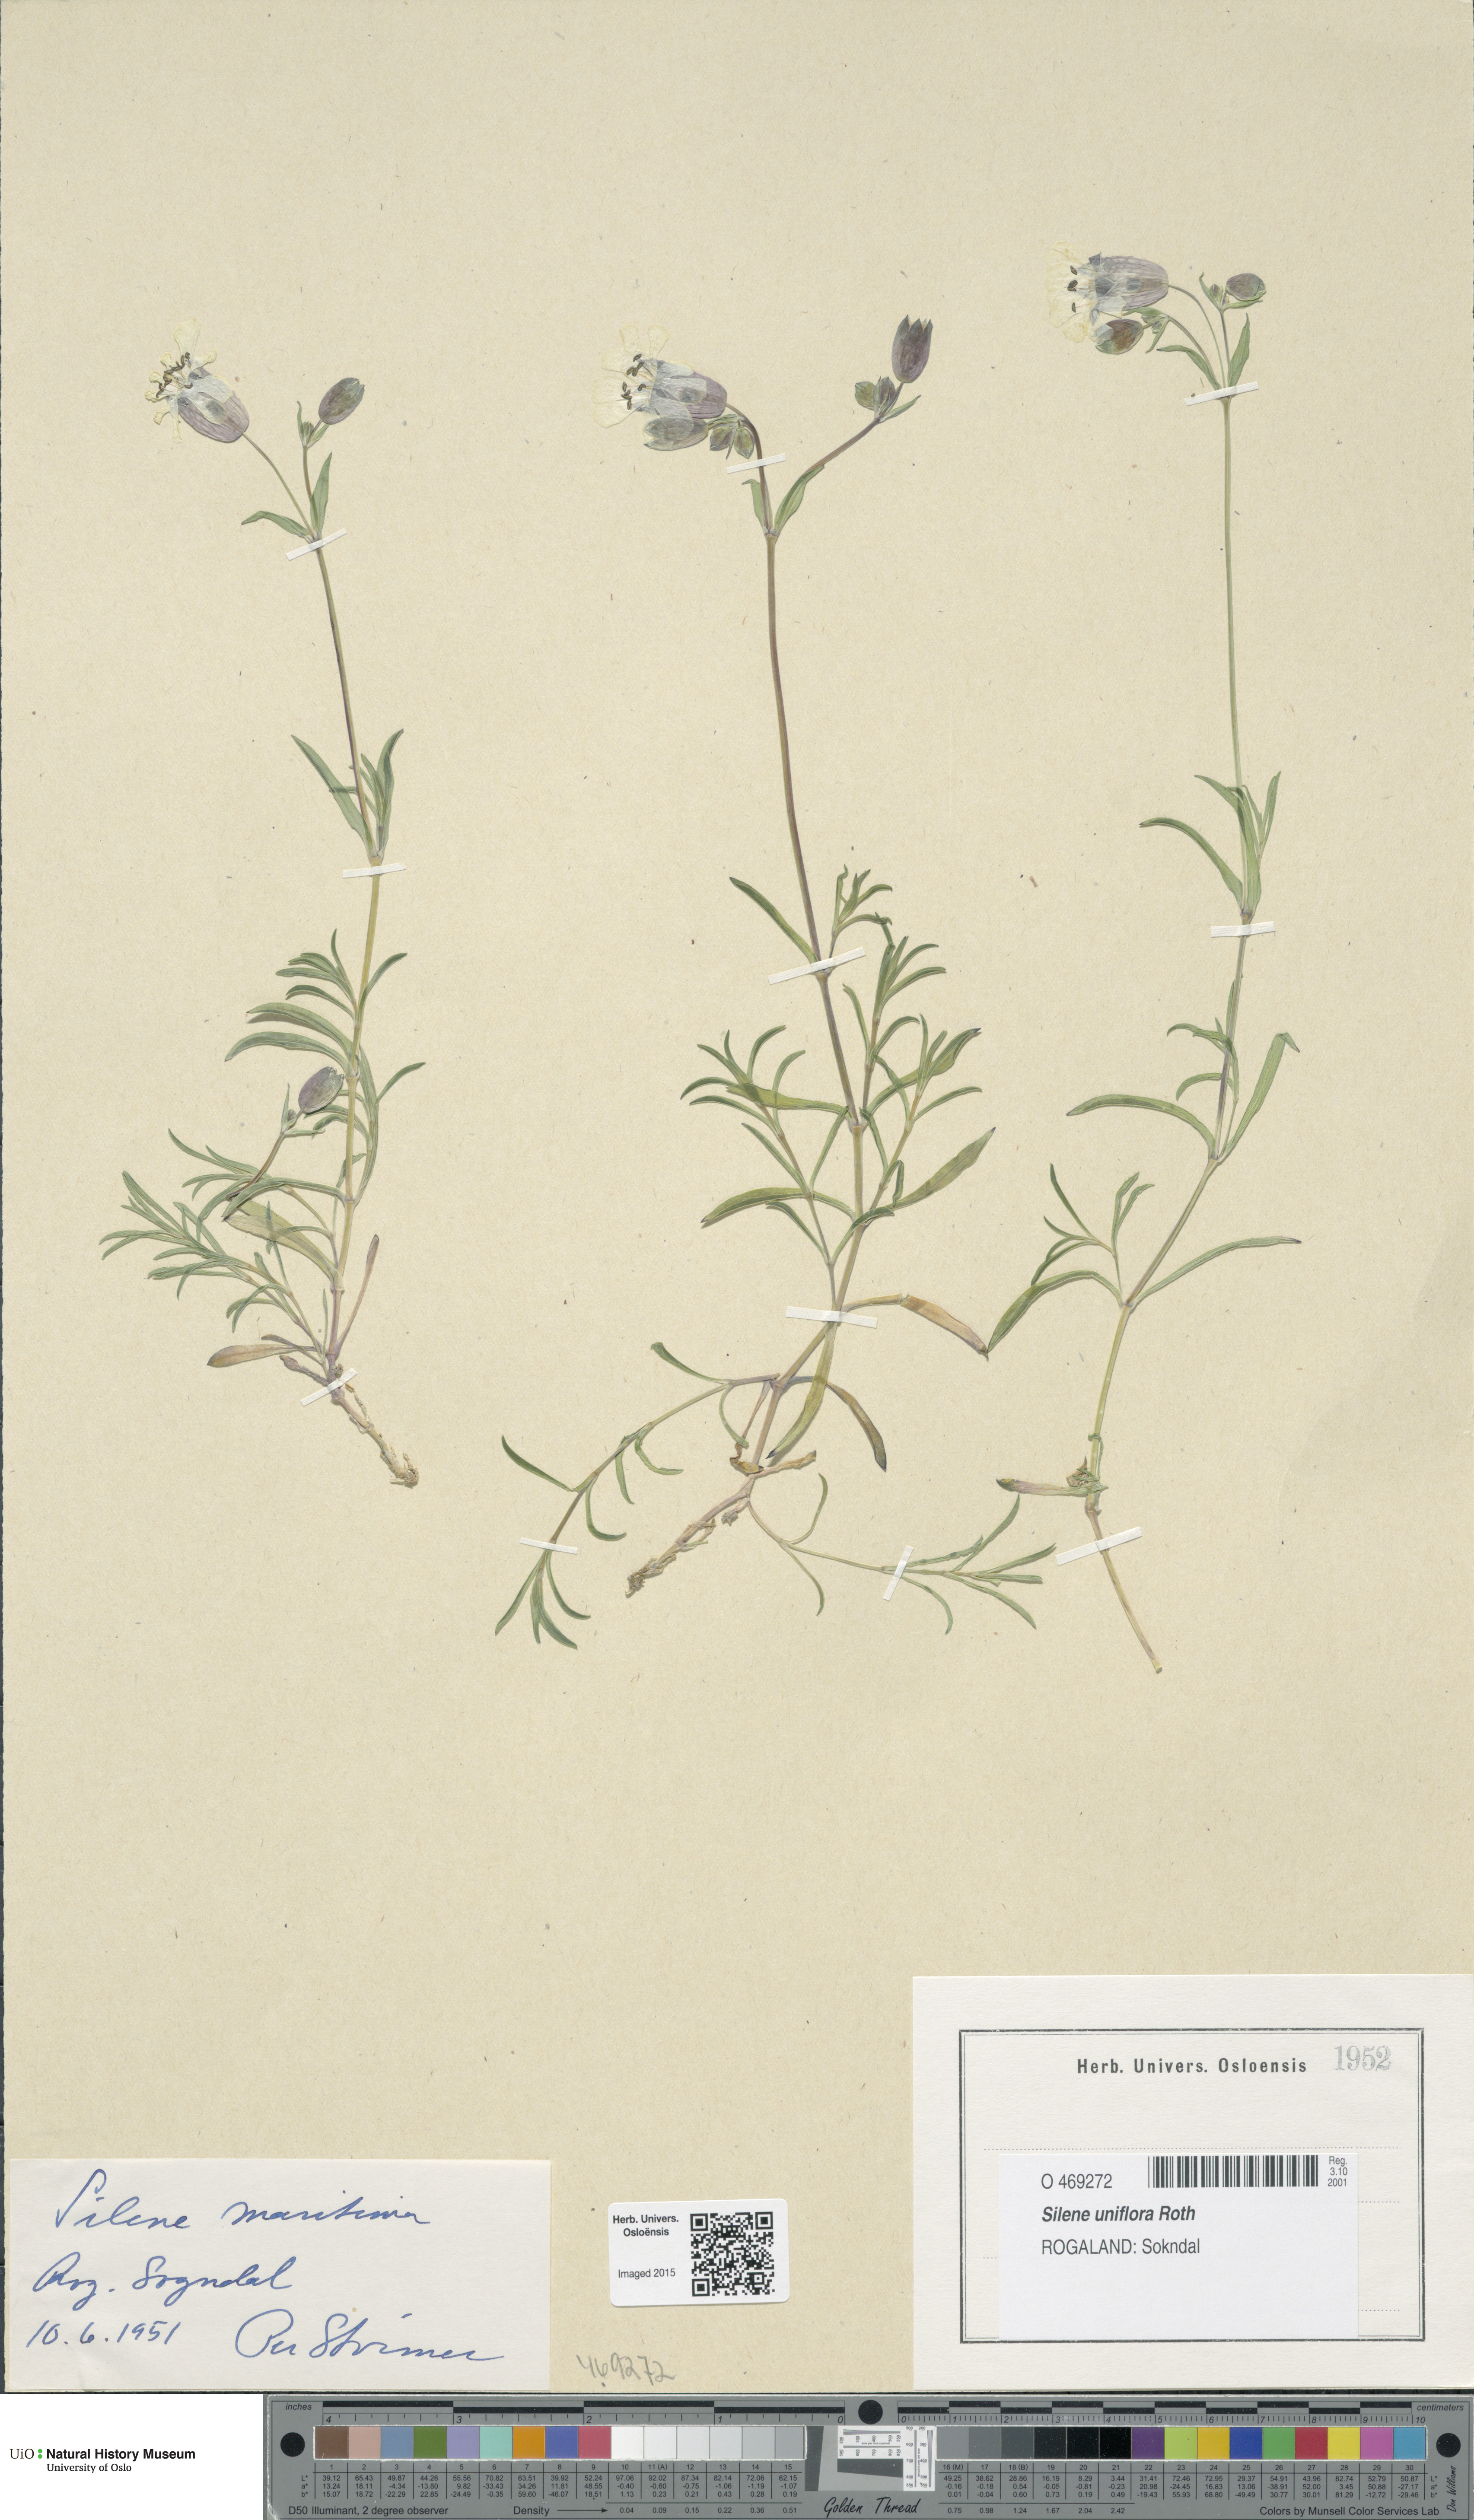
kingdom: Plantae
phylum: Tracheophyta
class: Magnoliopsida
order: Caryophyllales
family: Caryophyllaceae
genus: Silene
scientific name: Silene uniflora
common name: Sea campion
